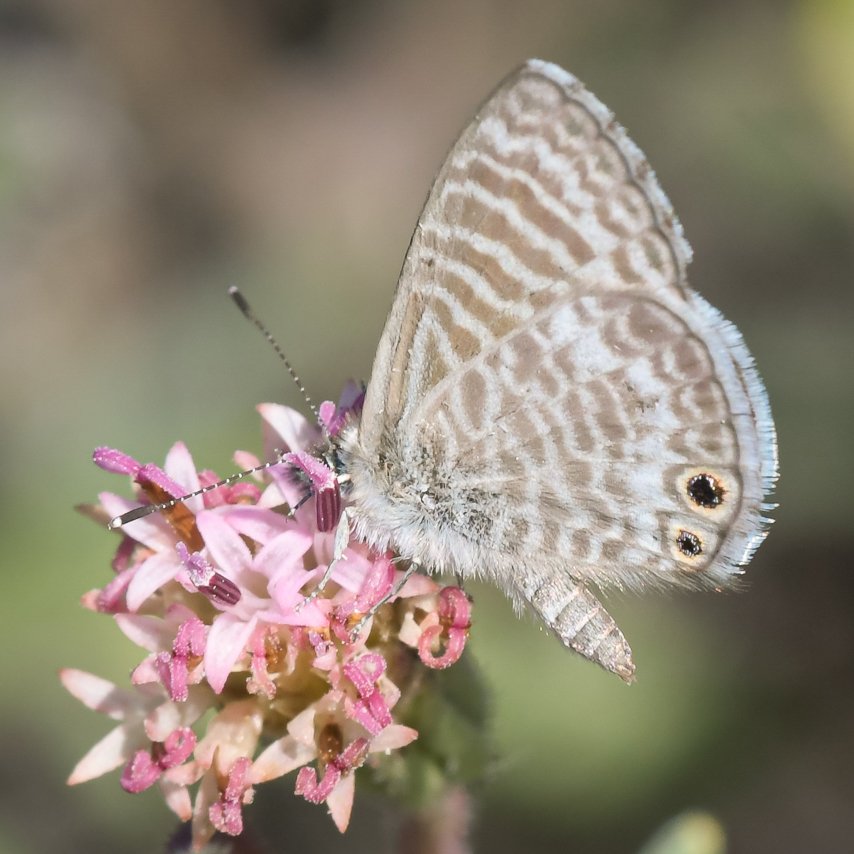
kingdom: Animalia
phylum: Arthropoda
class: Insecta
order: Lepidoptera
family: Lycaenidae
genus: Leptotes
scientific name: Leptotes marina
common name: Marine Blue
